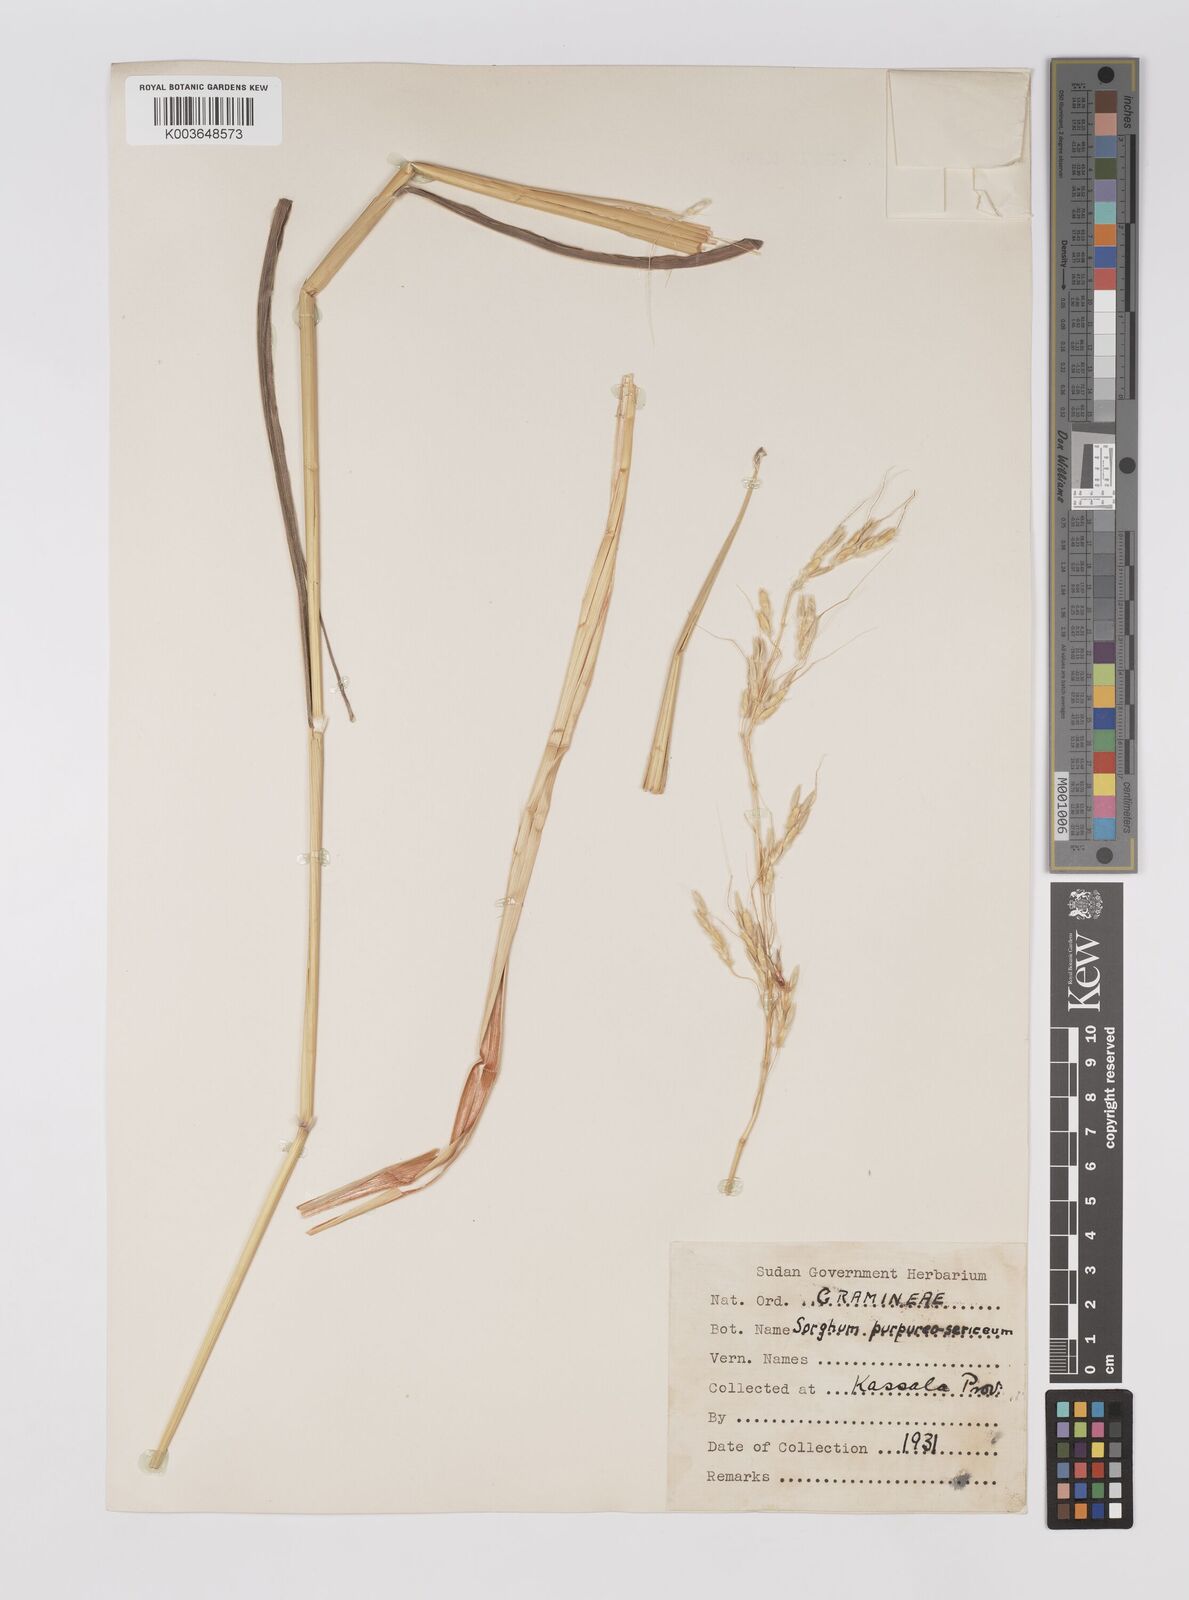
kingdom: Plantae
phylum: Tracheophyta
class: Liliopsida
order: Poales
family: Poaceae
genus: Sarga
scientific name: Sarga purpureosericea
